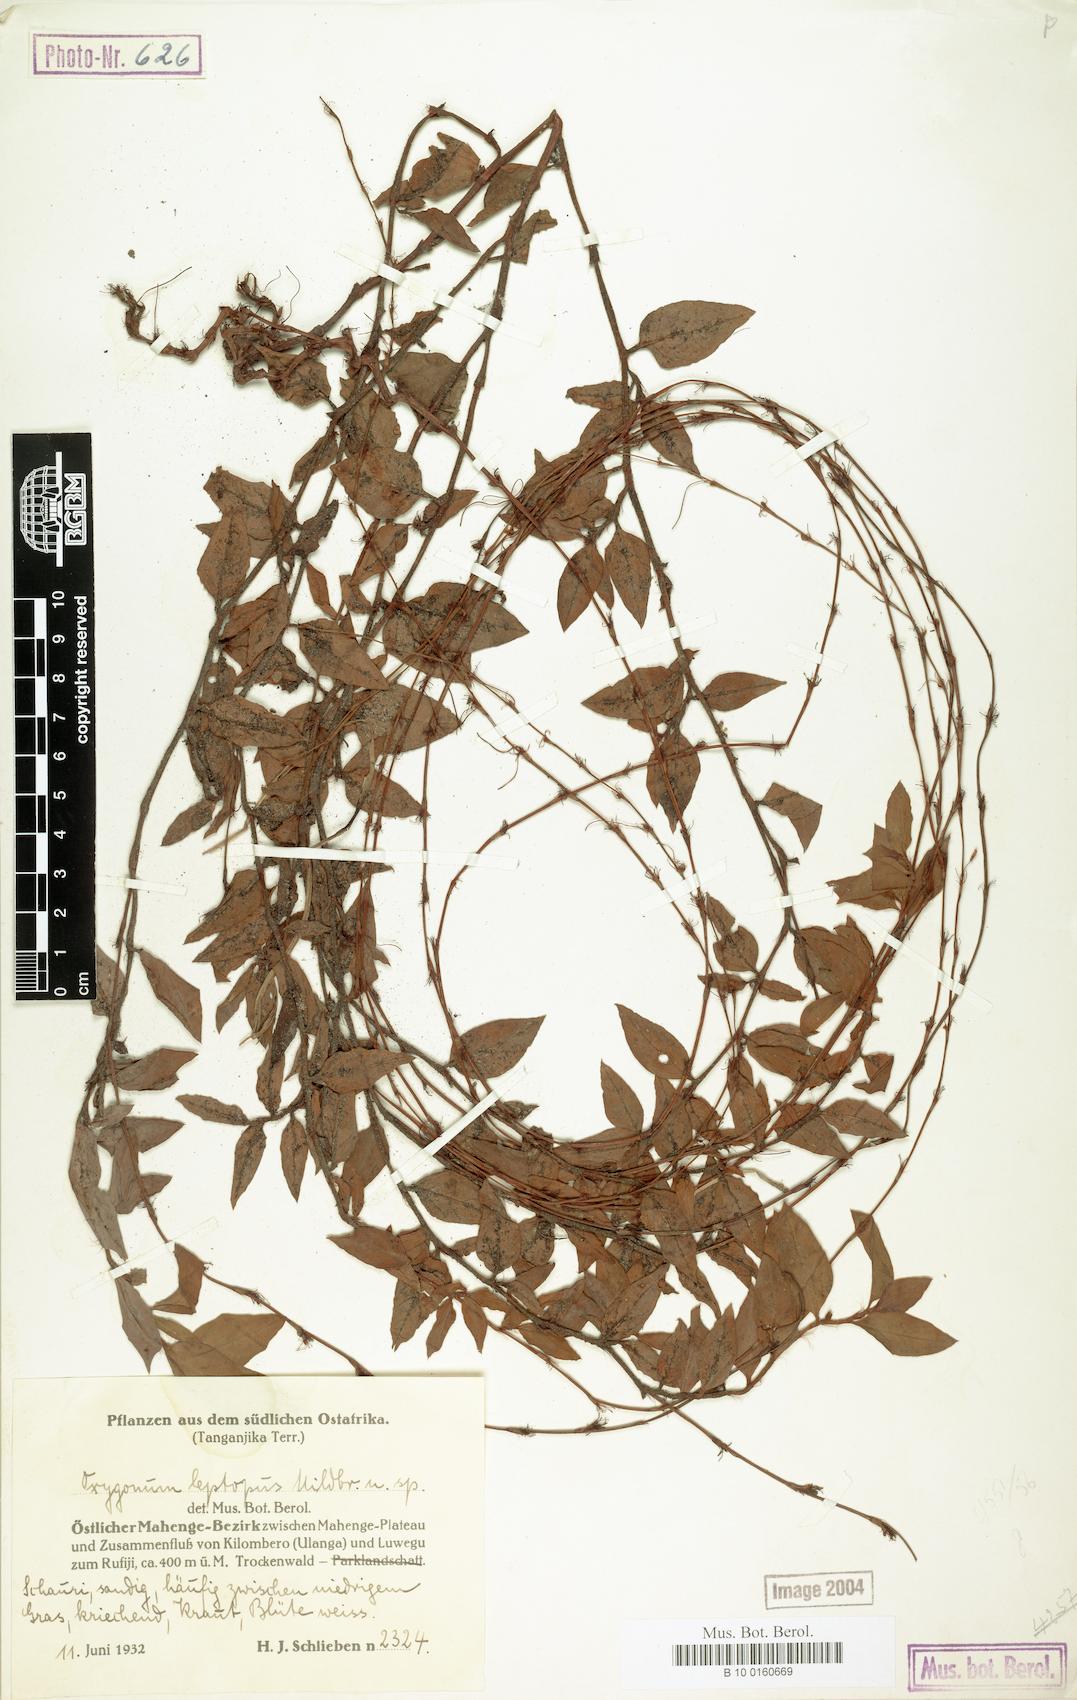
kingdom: Plantae
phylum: Tracheophyta
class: Magnoliopsida
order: Caryophyllales
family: Polygonaceae
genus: Oxygonum
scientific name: Oxygonum leptopus
